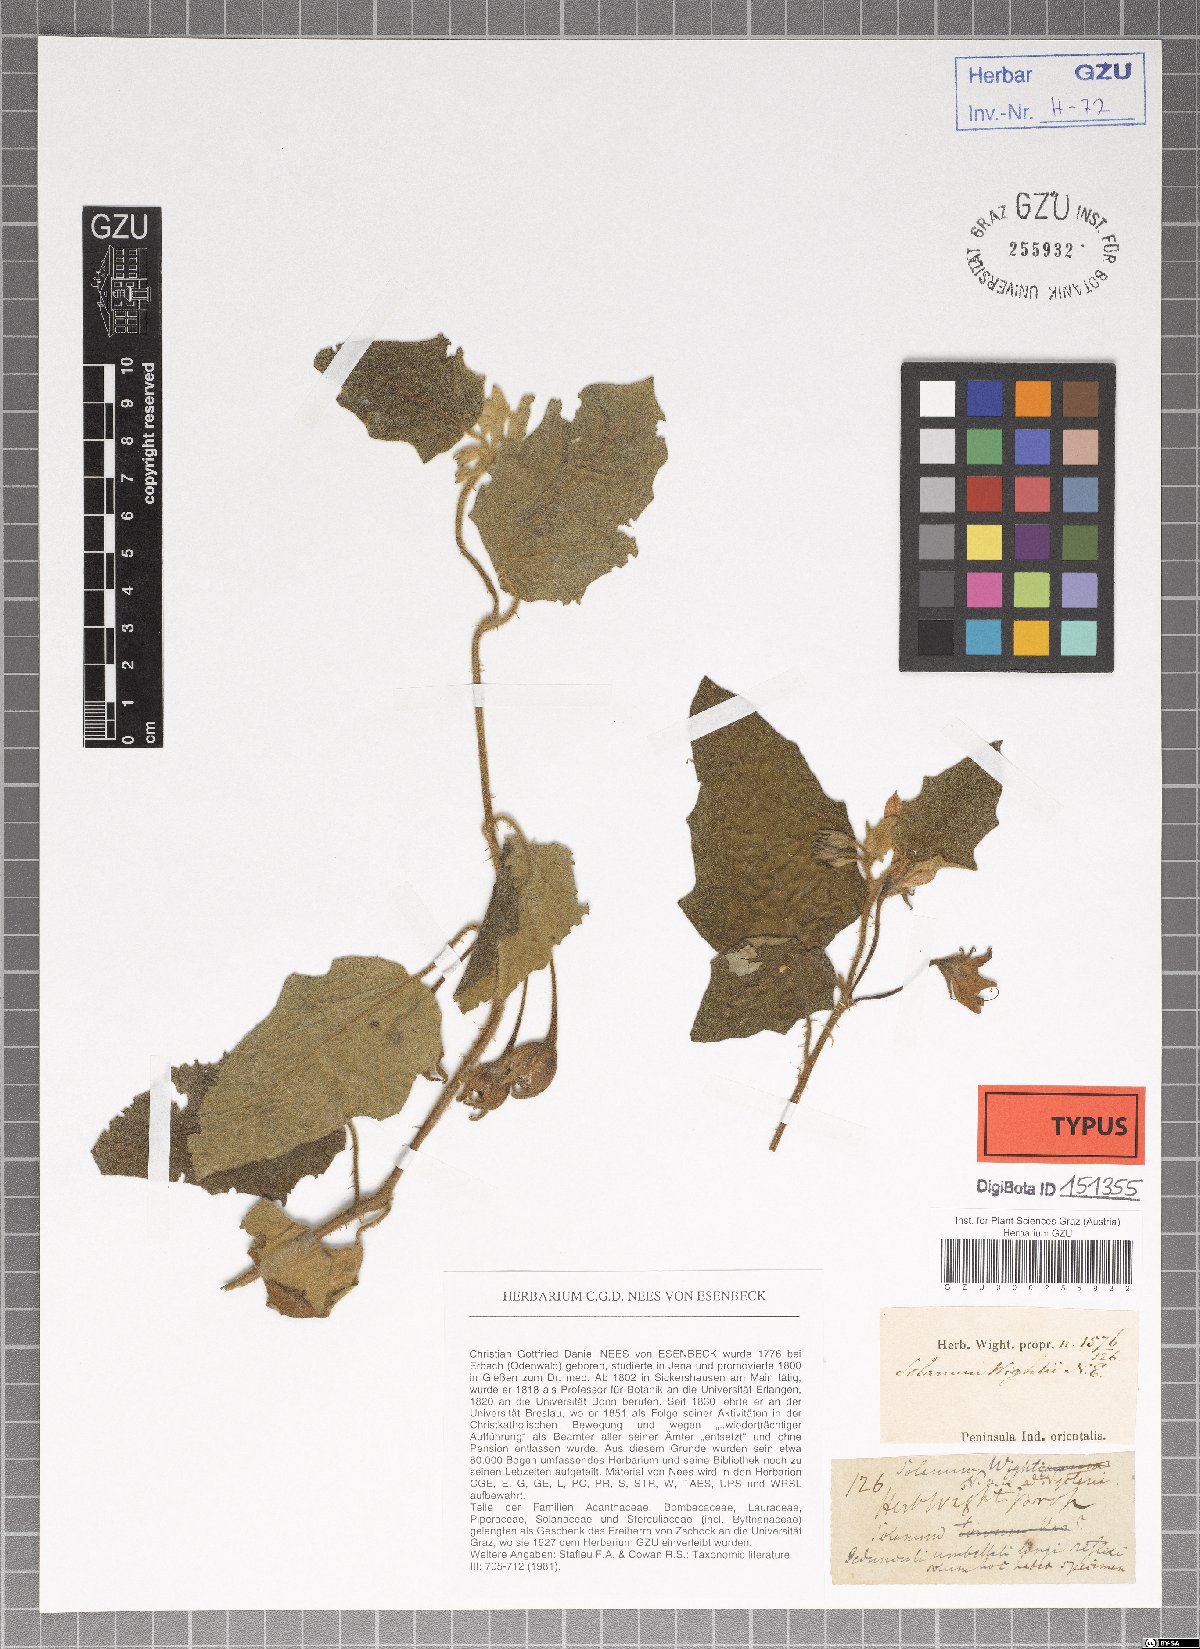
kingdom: Plantae
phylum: Tracheophyta
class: Magnoliopsida
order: Solanales
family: Solanaceae
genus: Solanum
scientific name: Solanum wightii
